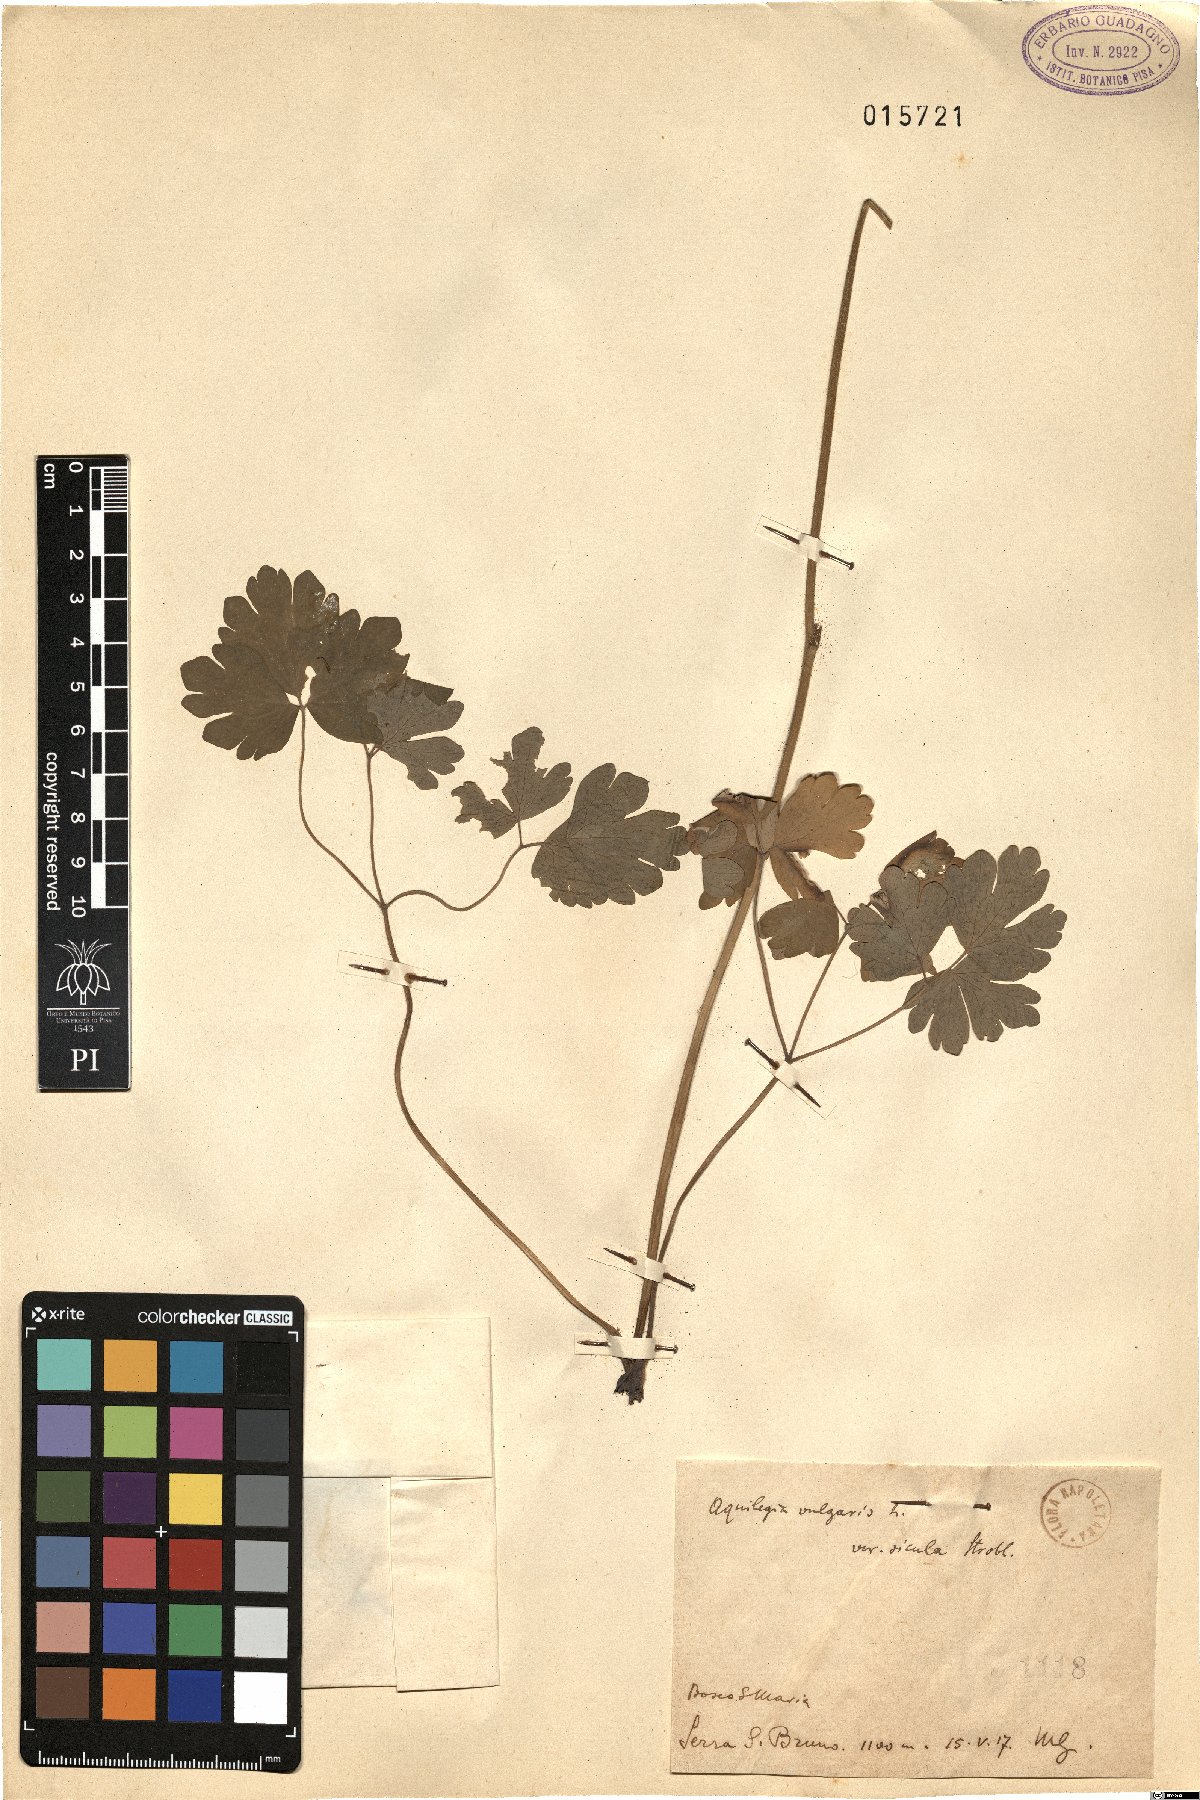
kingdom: Plantae
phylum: Tracheophyta
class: Magnoliopsida
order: Ranunculales
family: Ranunculaceae
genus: Aquilegia
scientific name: Aquilegia sicula
